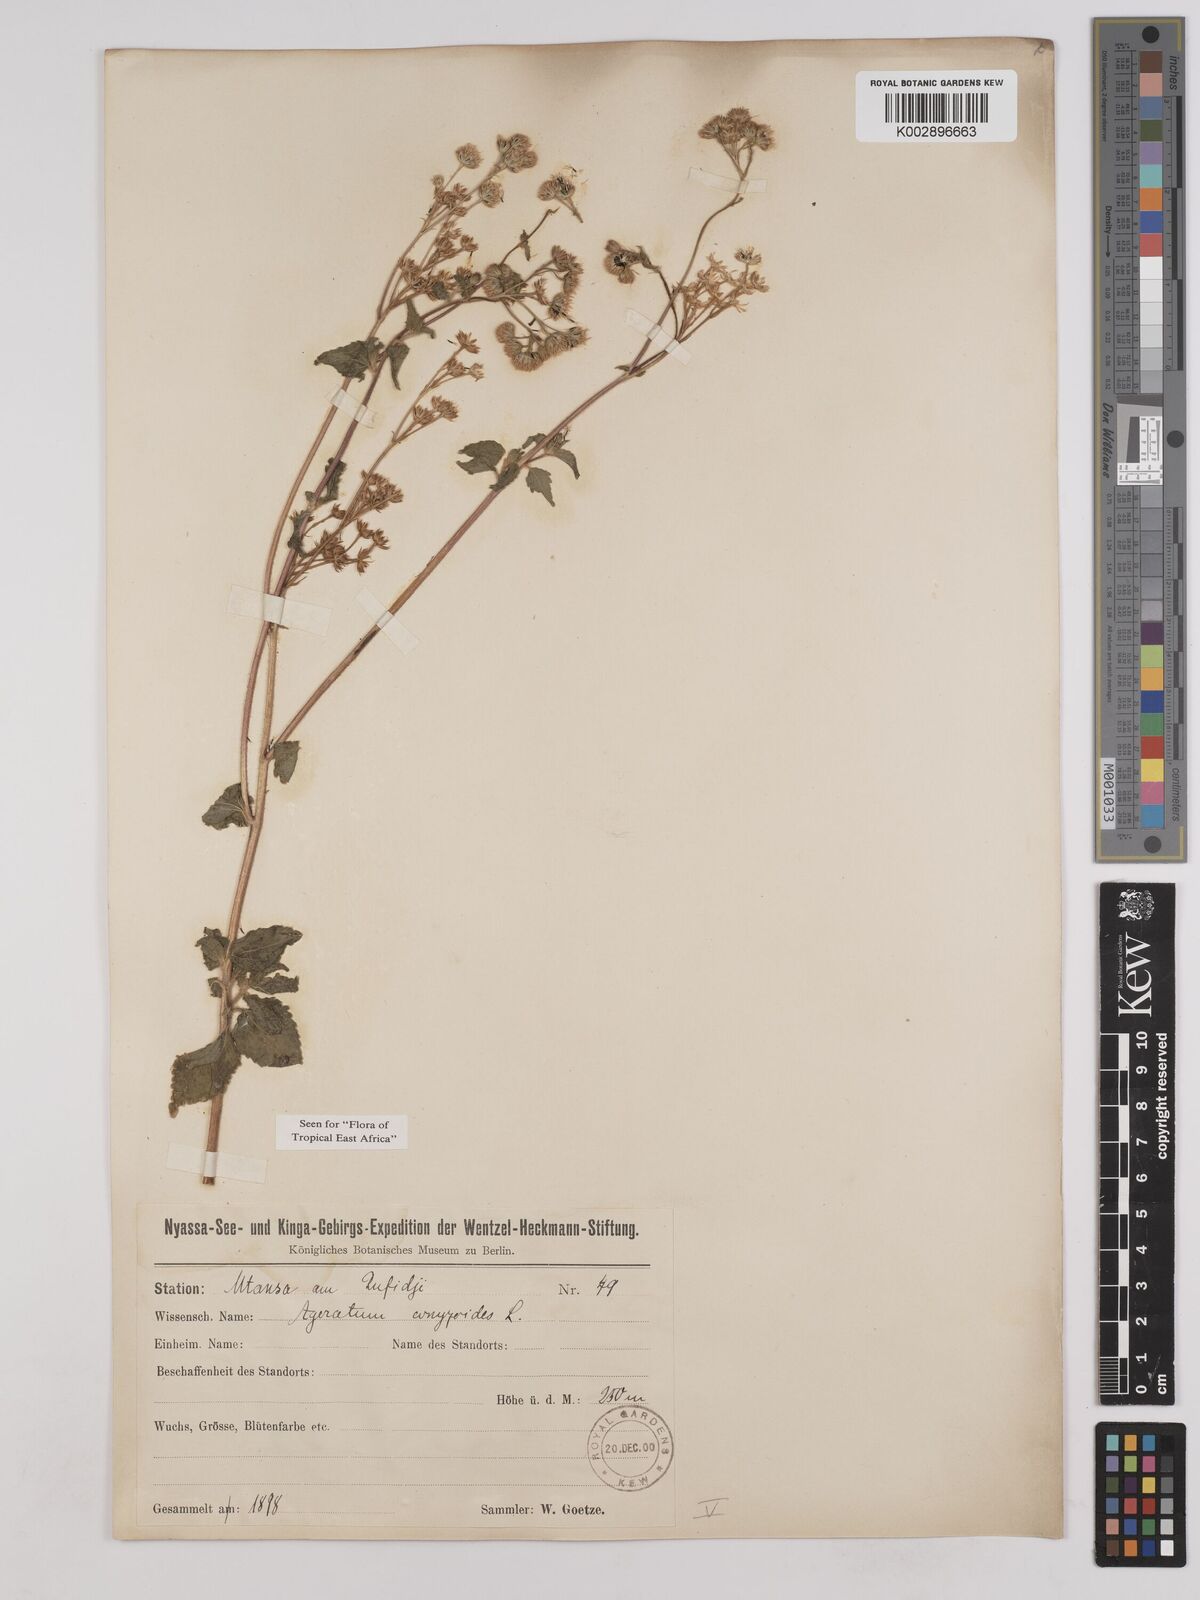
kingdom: Plantae
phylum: Tracheophyta
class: Magnoliopsida
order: Asterales
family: Asteraceae
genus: Ageratum
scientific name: Ageratum conyzoides
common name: Tropical whiteweed
